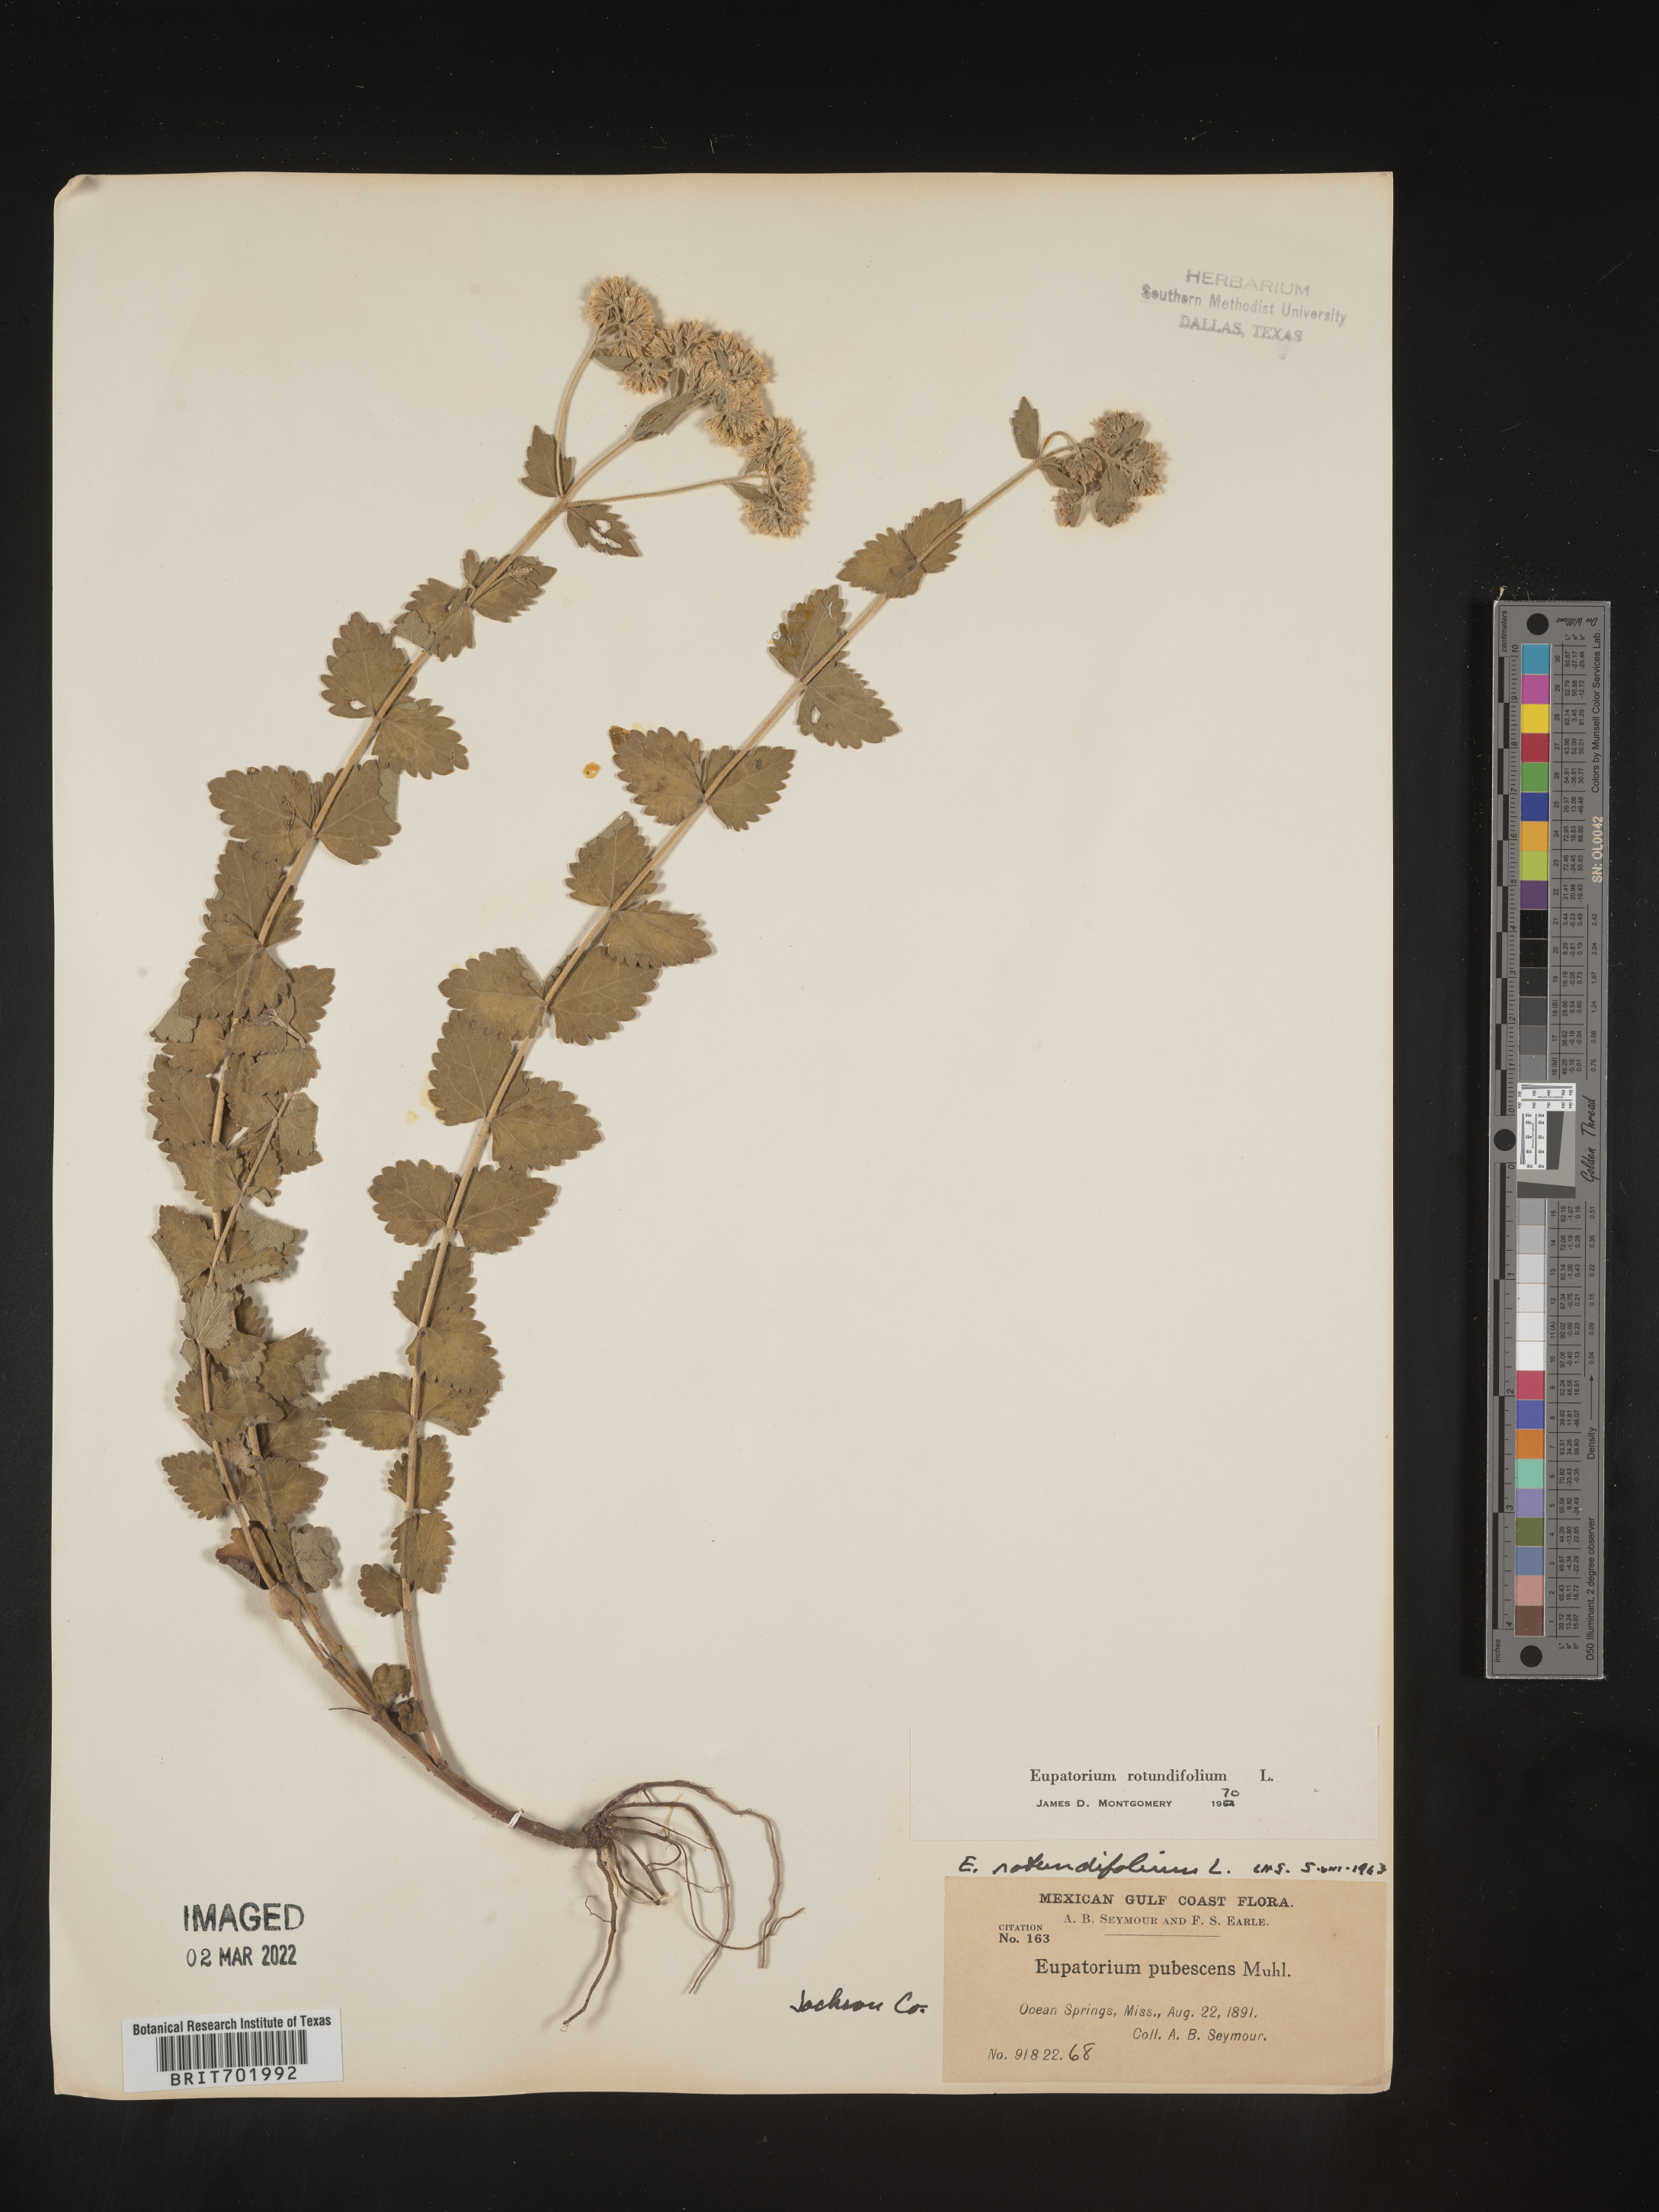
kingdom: Plantae
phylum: Tracheophyta
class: Magnoliopsida
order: Asterales
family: Asteraceae
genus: Eupatorium
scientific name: Eupatorium rotundifolium
